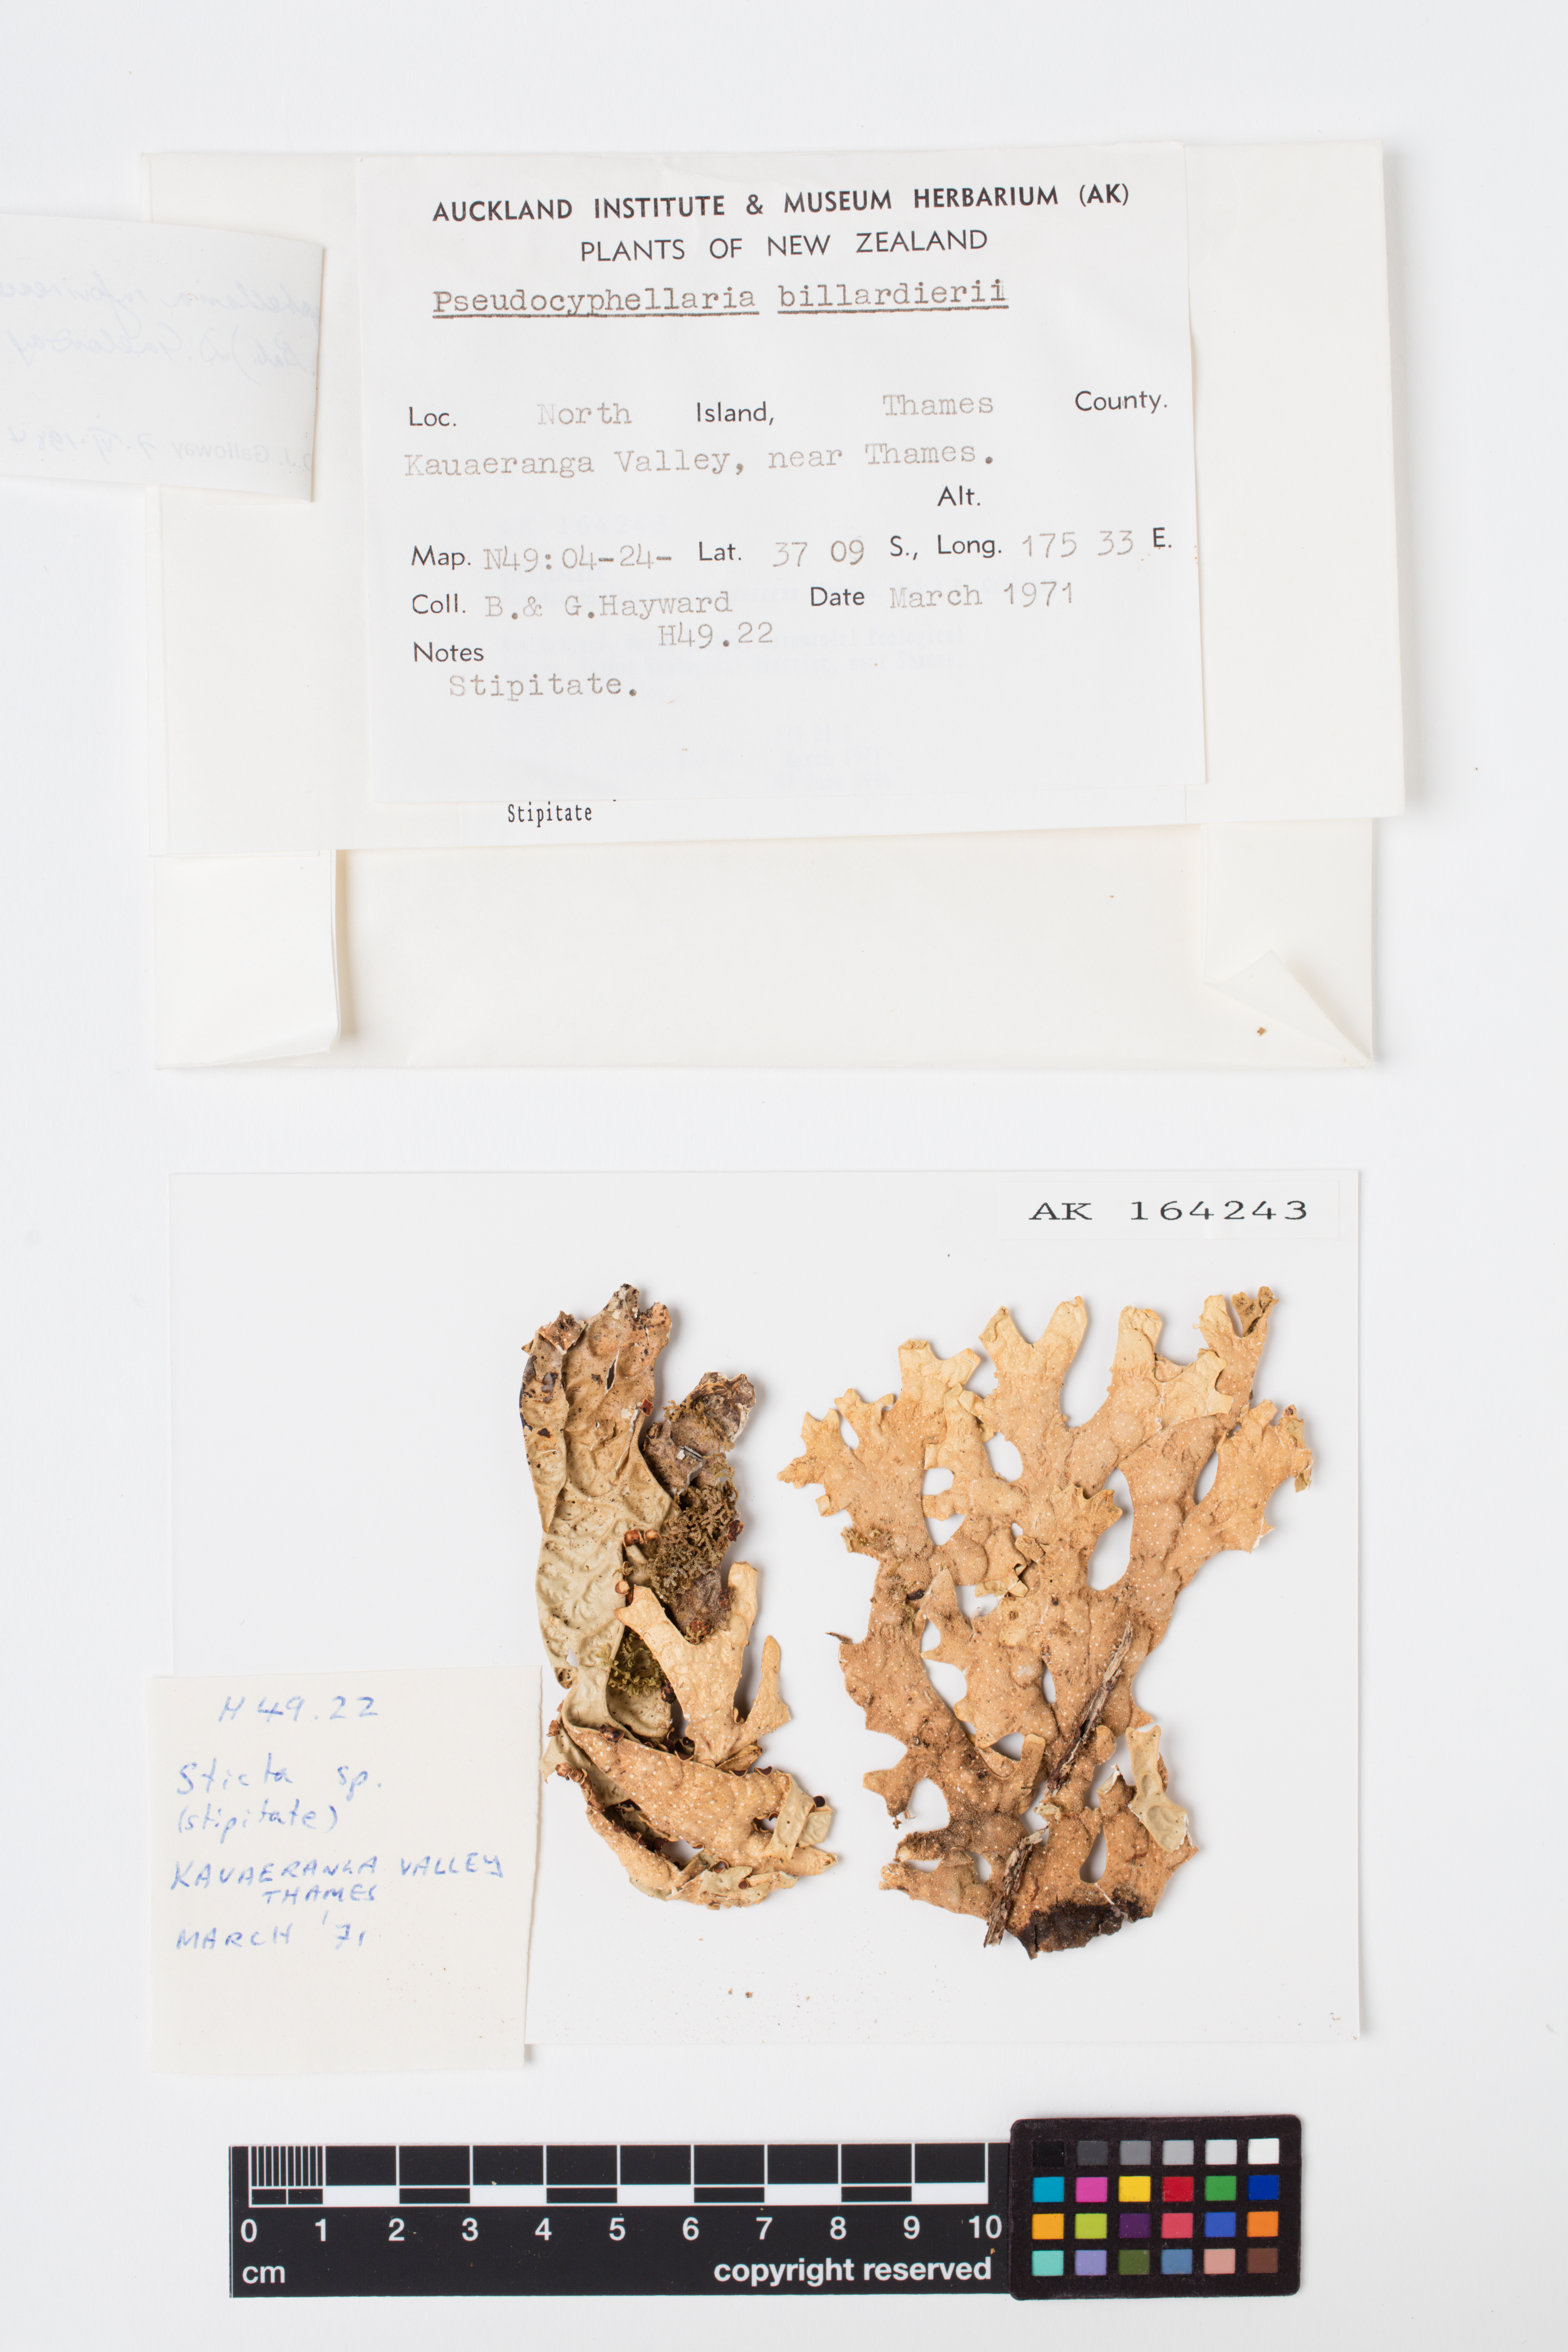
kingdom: Fungi
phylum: Ascomycota
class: Lecanoromycetes
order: Peltigerales
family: Lobariaceae
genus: Pseudocyphellaria
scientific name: Pseudocyphellaria rufovirescens
